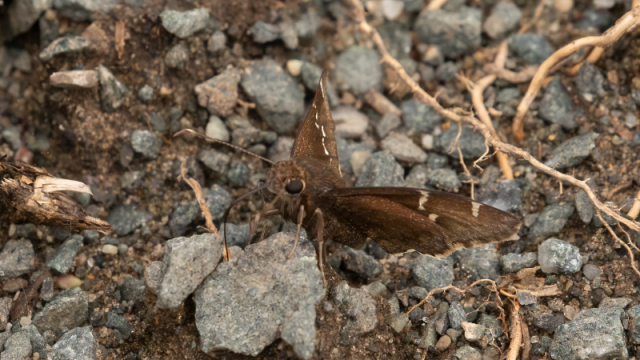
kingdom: Animalia
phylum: Arthropoda
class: Insecta
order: Lepidoptera
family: Hesperiidae
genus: Autochton
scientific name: Autochton
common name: Southern Cloudywing
